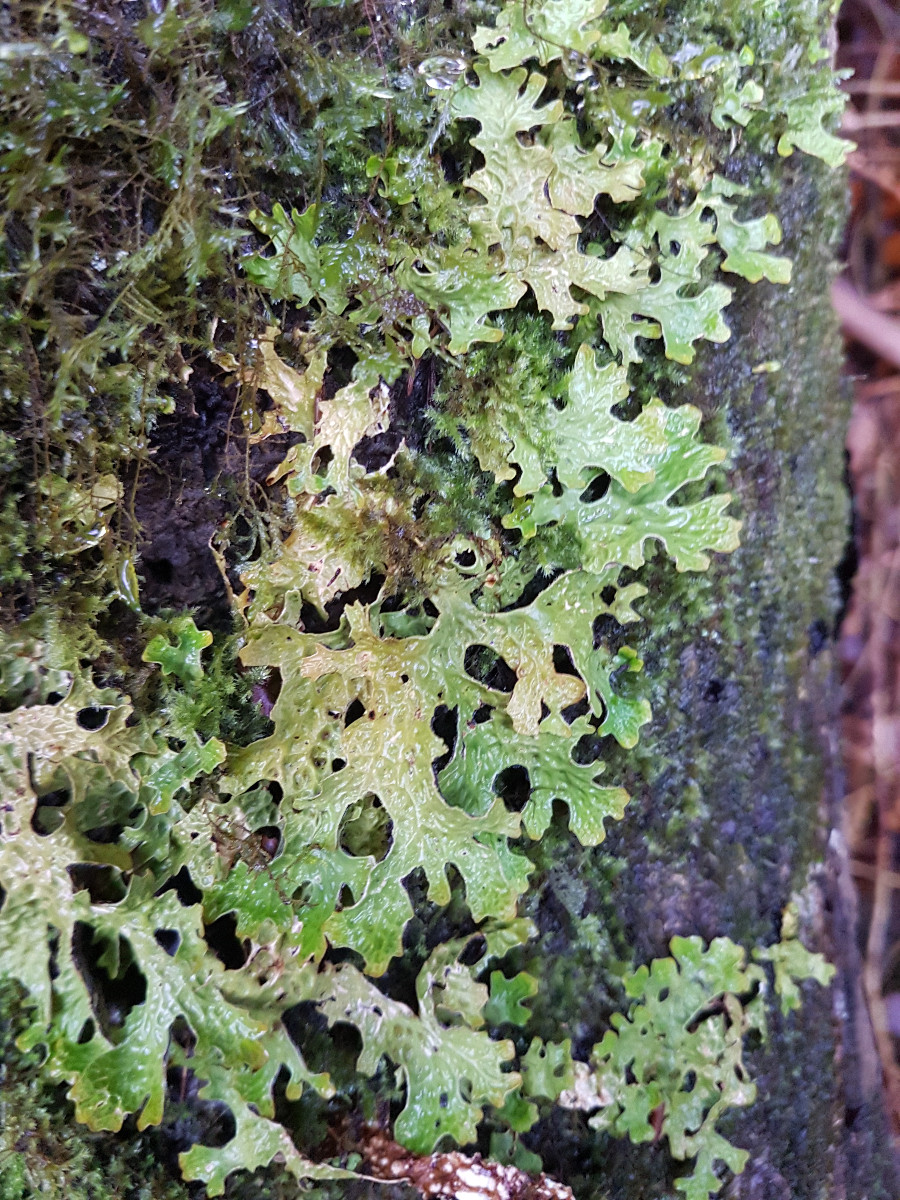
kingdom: Fungi
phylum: Ascomycota
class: Lecanoromycetes
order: Peltigerales
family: Lobariaceae
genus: Lobaria
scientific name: Lobaria pulmonaria
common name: almindelig lungelav
